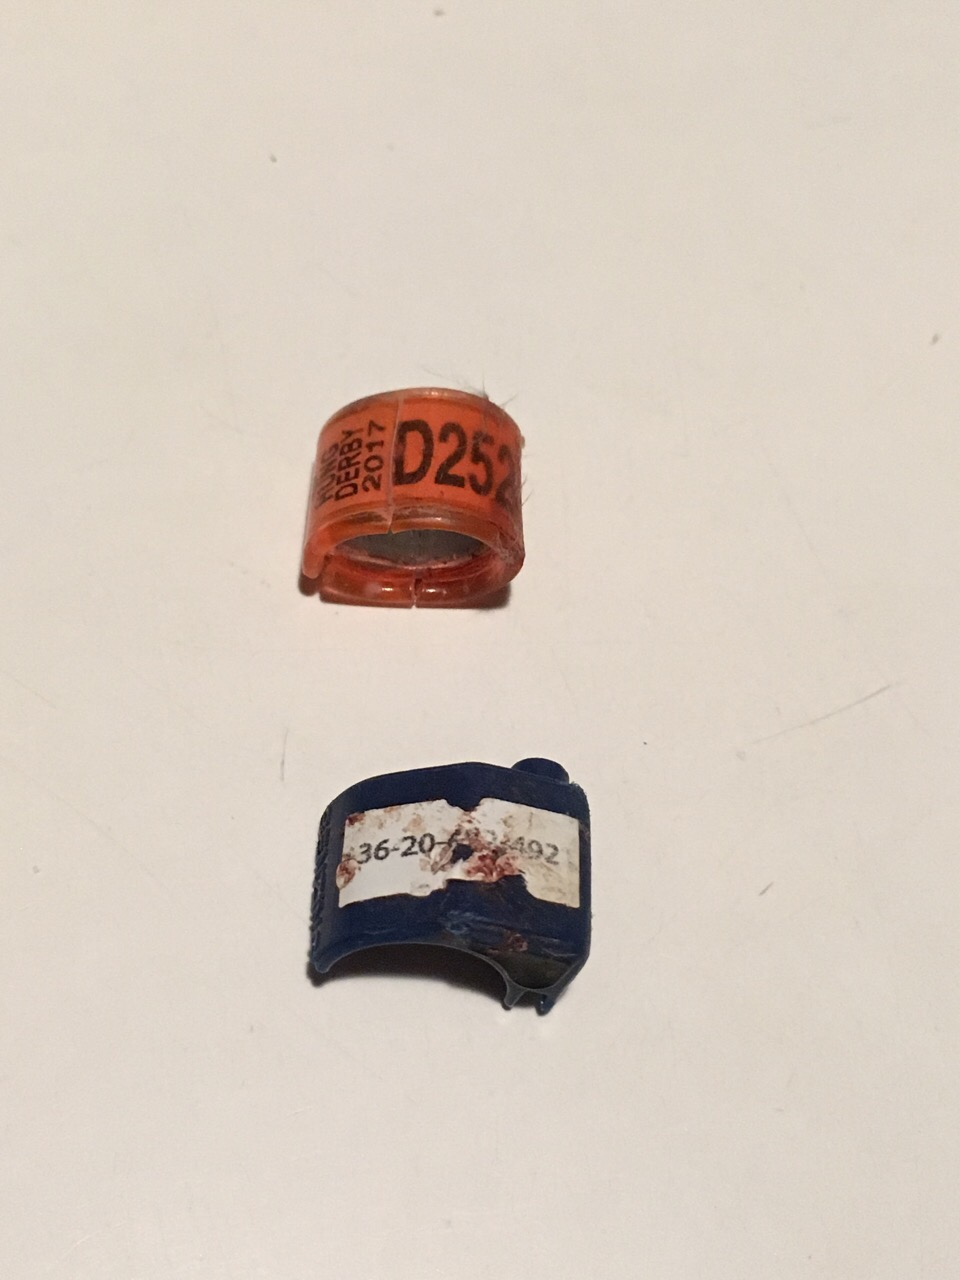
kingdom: Animalia
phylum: Chordata
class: Aves
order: Columbiformes
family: Columbidae
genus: Columba
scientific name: Columba livia
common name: Rock pigeon
